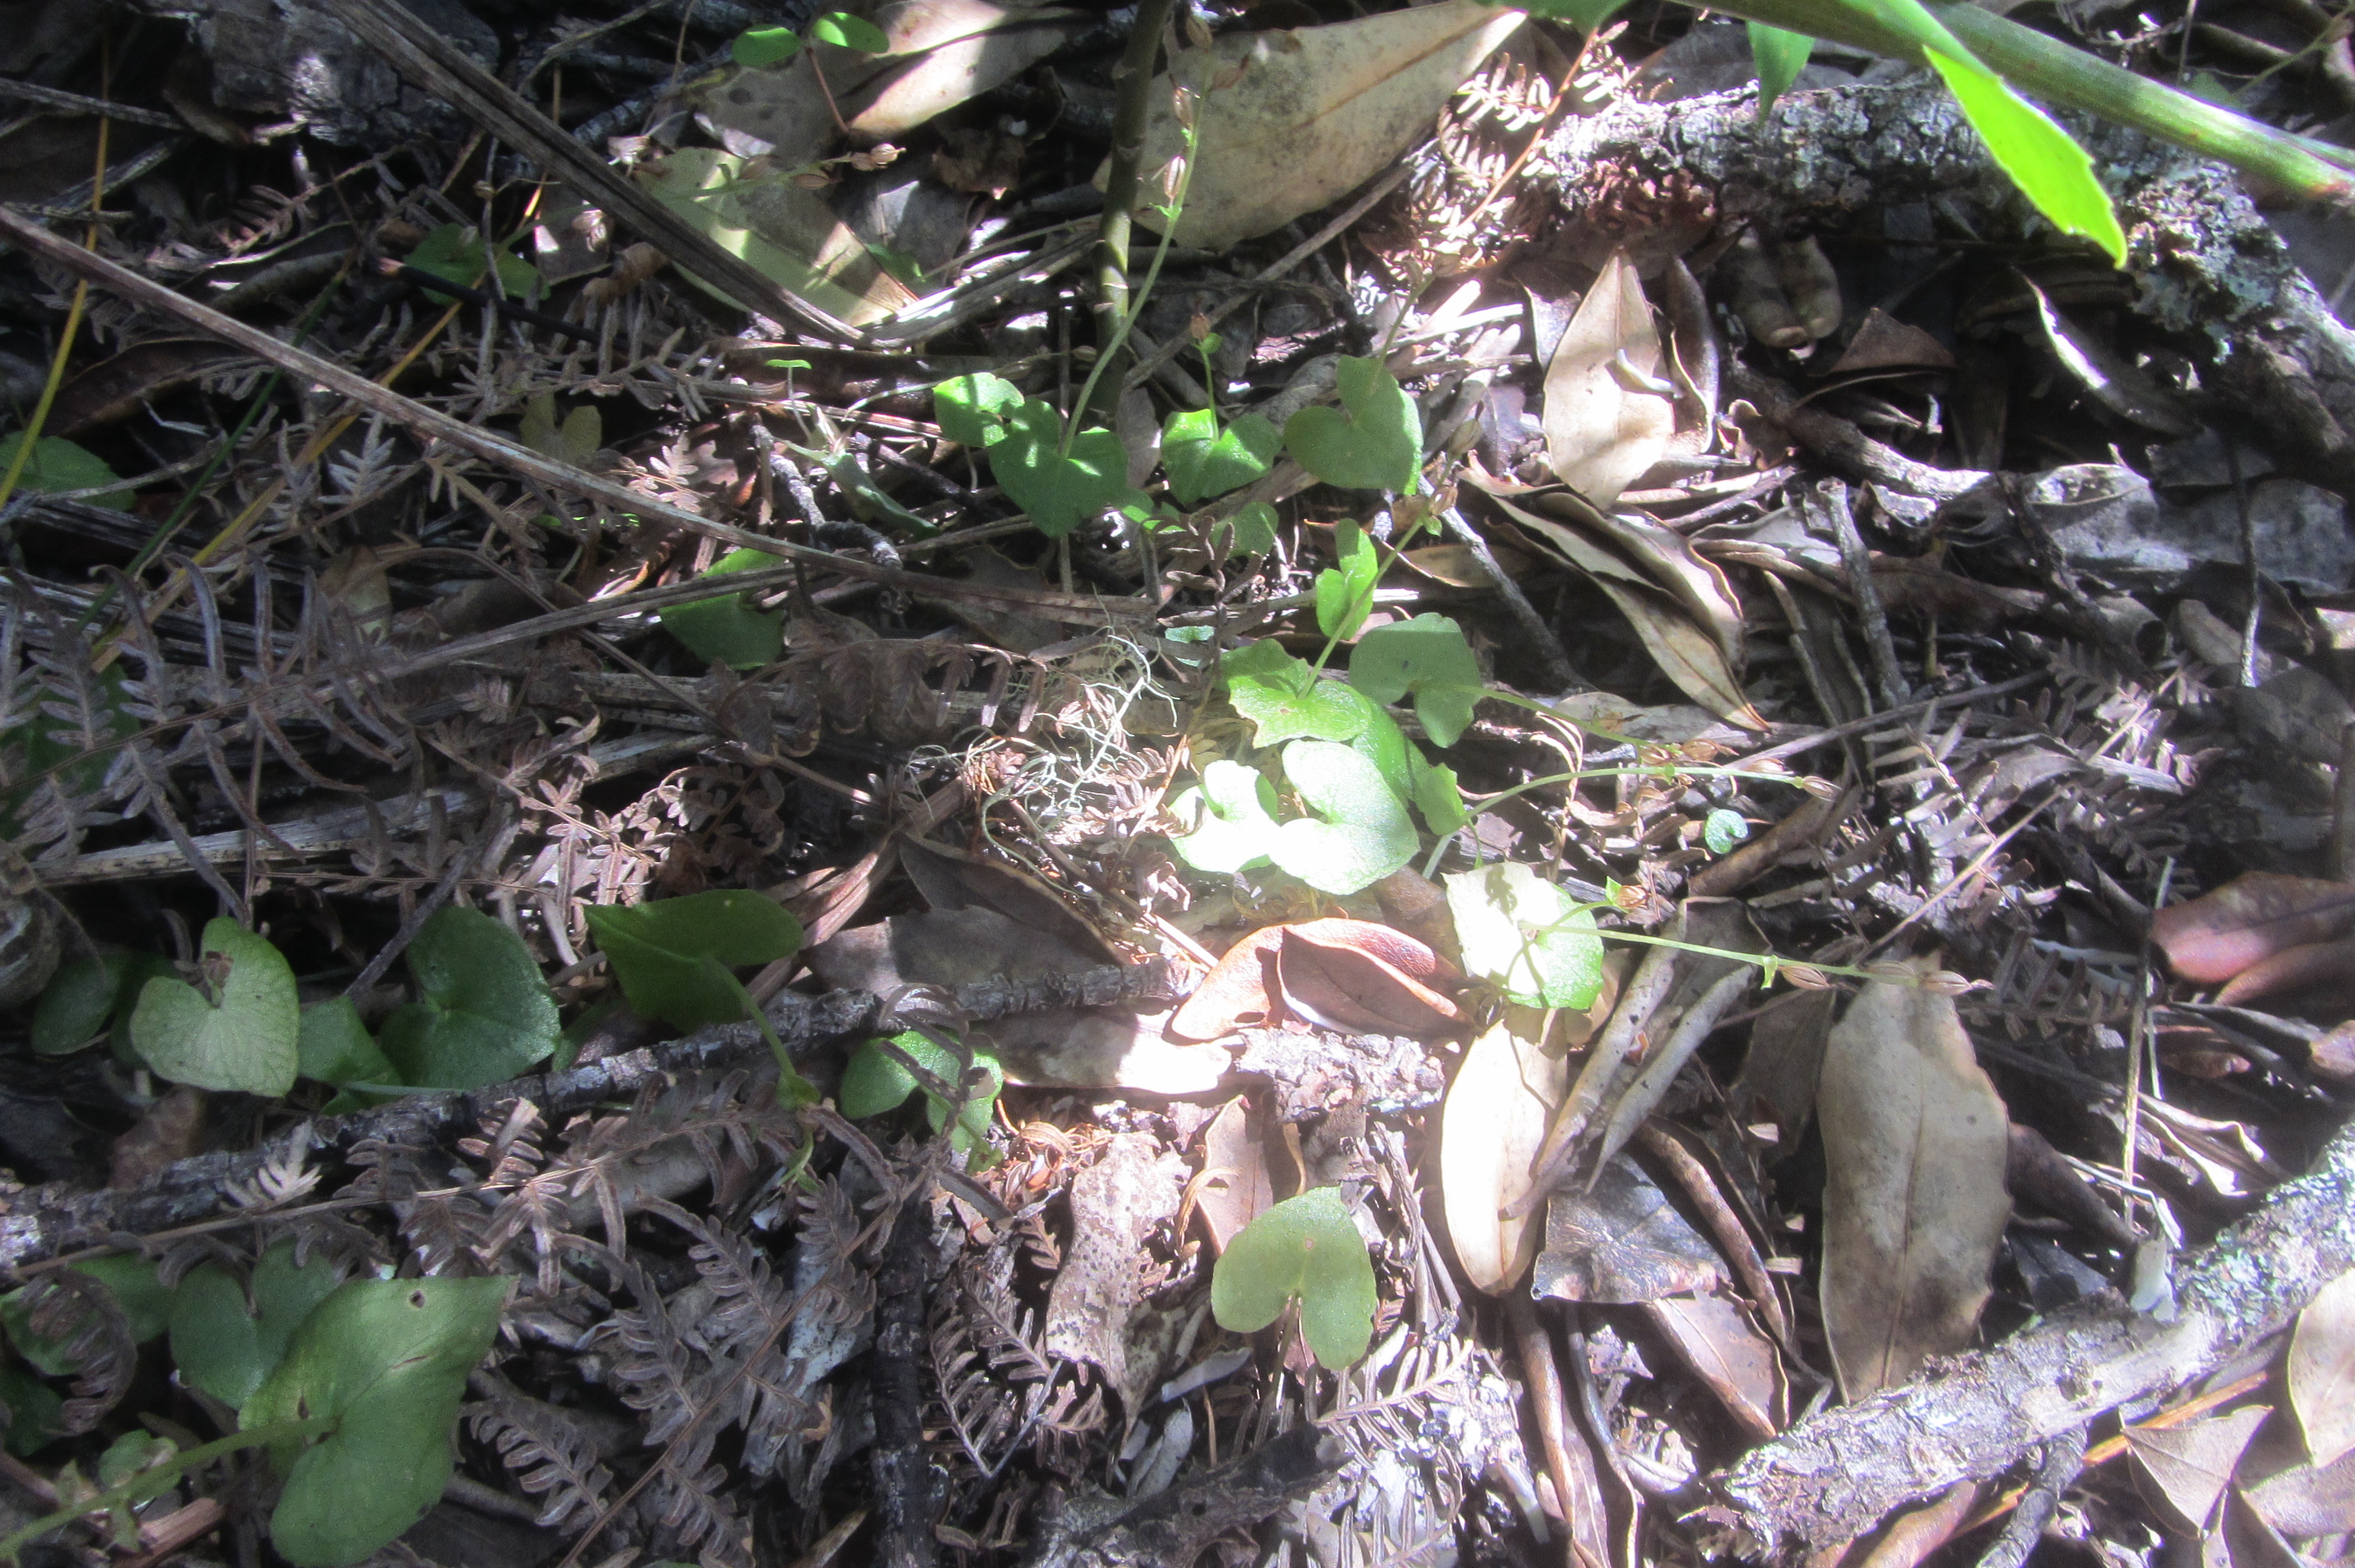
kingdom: Plantae
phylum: Tracheophyta
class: Liliopsida
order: Asparagales
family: Orchidaceae
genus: Acianthus
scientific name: Acianthus sinclairii
